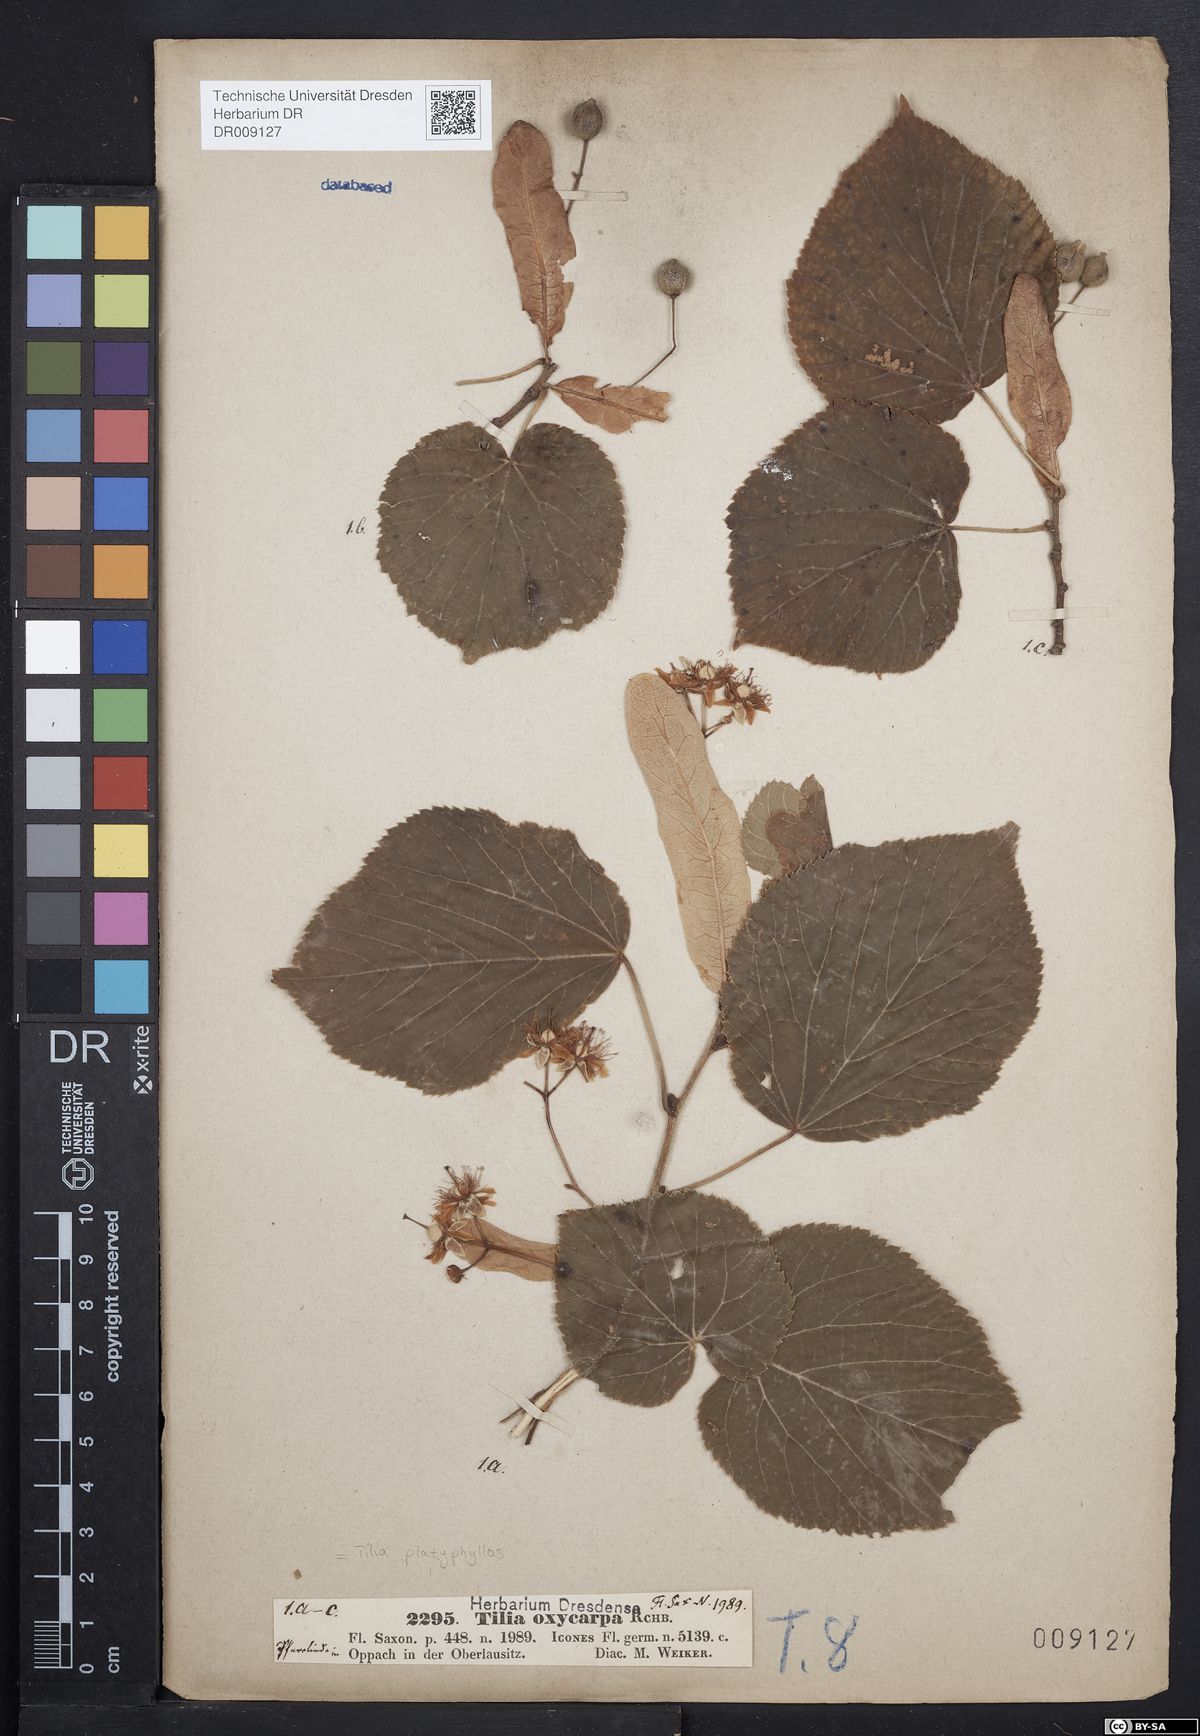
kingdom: Plantae
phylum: Tracheophyta
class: Magnoliopsida
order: Malvales
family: Malvaceae
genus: Tilia
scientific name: Tilia platyphyllos
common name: Large-leaved lime
